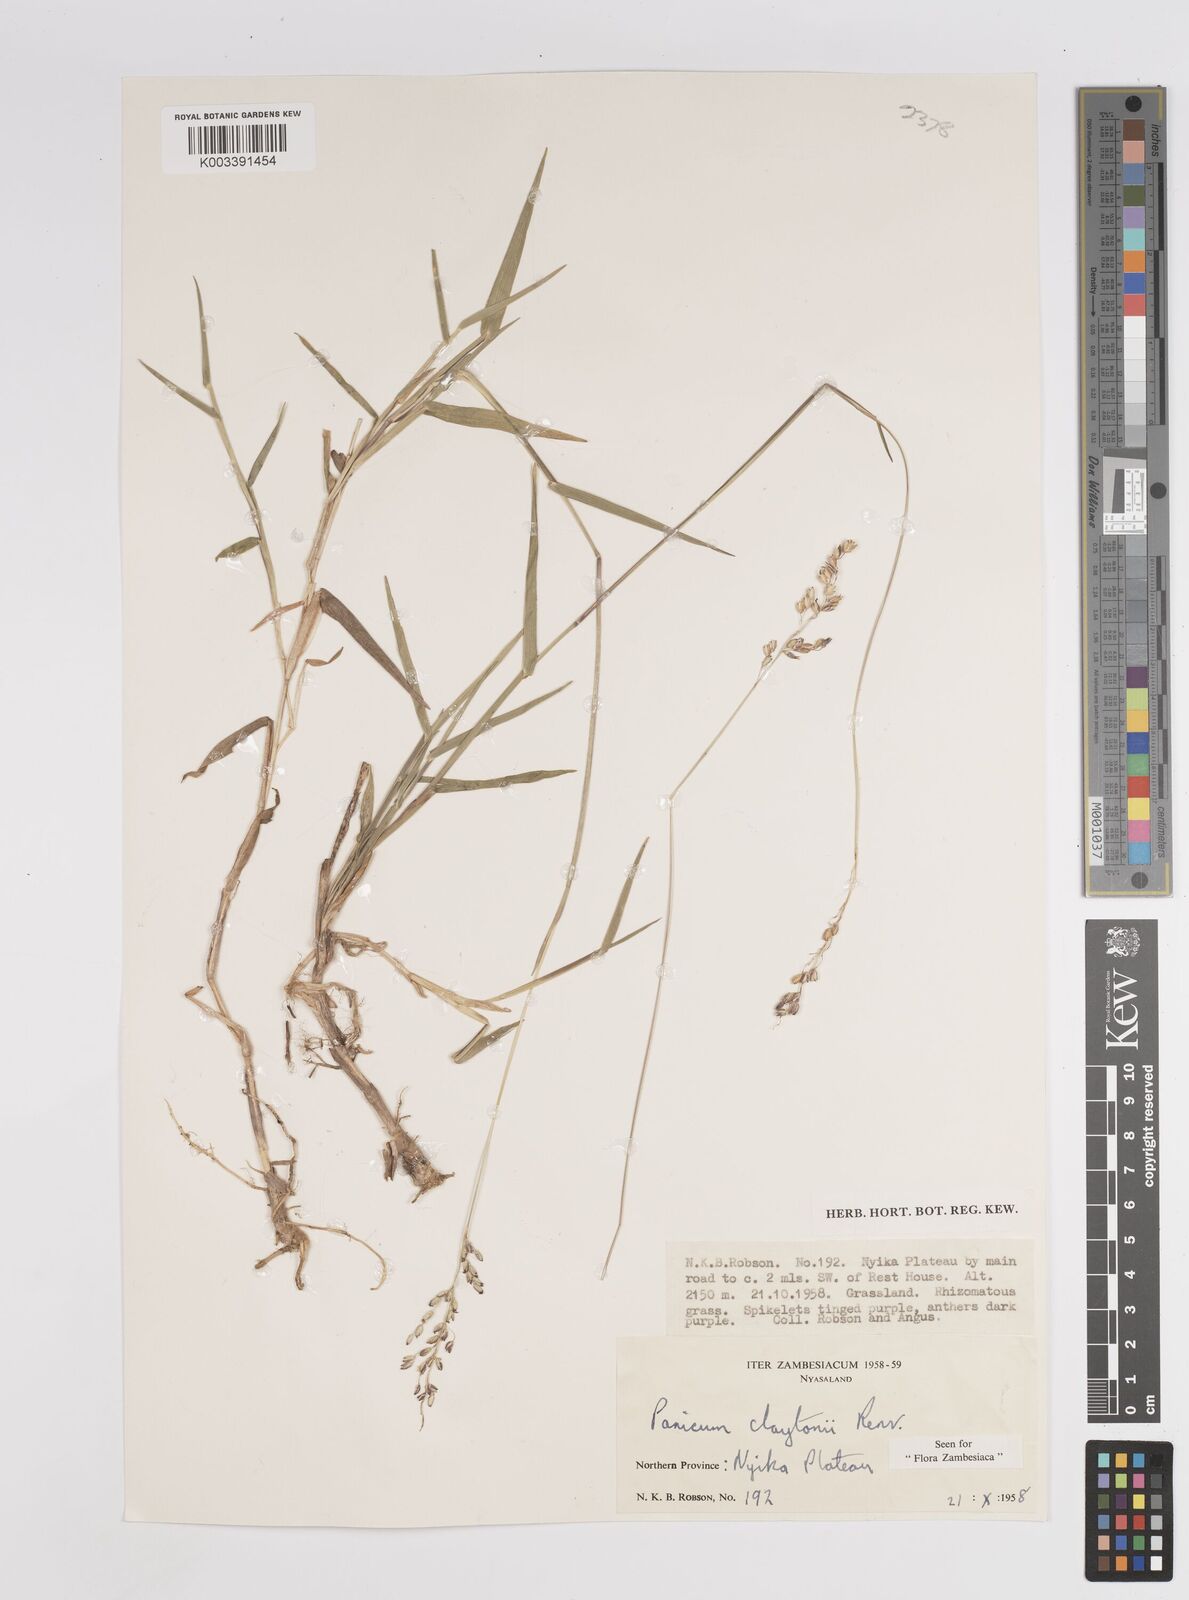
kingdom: Plantae
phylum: Tracheophyta
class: Liliopsida
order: Poales
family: Poaceae
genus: Adenochloa
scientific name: Adenochloa claytonii
